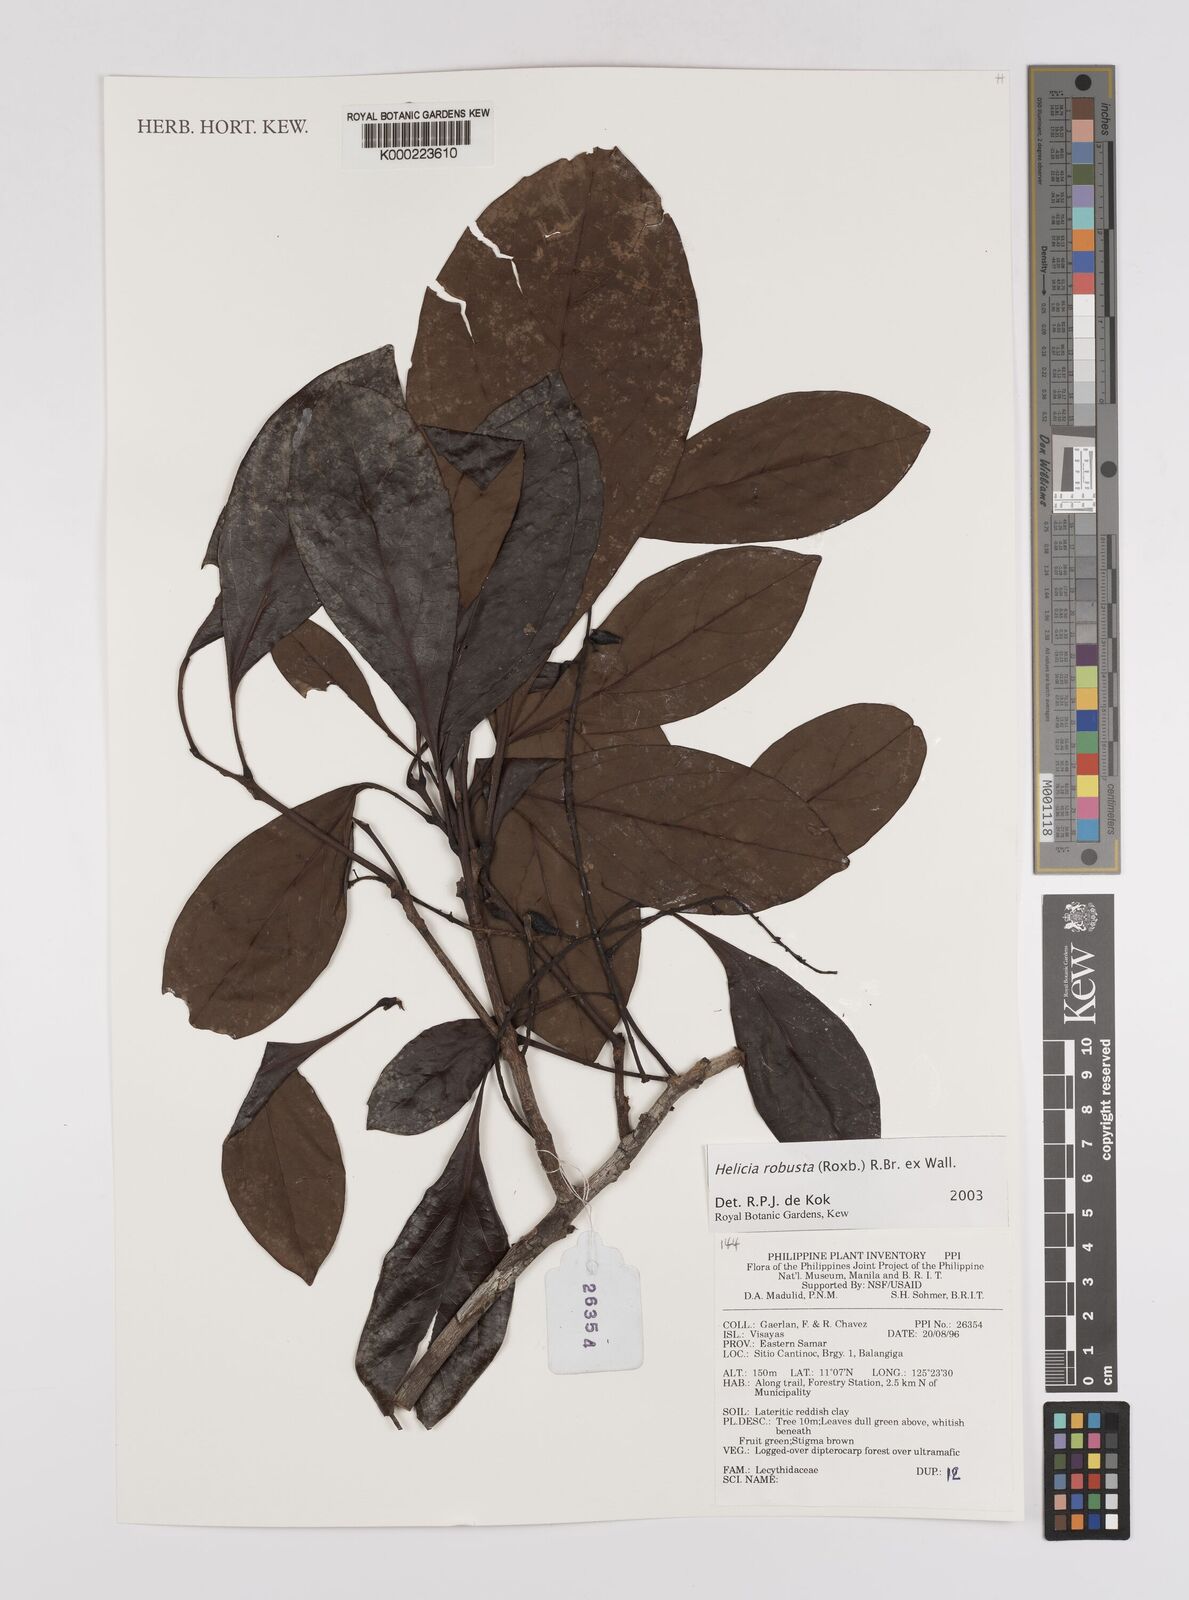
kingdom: Plantae
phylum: Tracheophyta
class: Magnoliopsida
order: Proteales
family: Proteaceae
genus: Helicia
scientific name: Helicia
